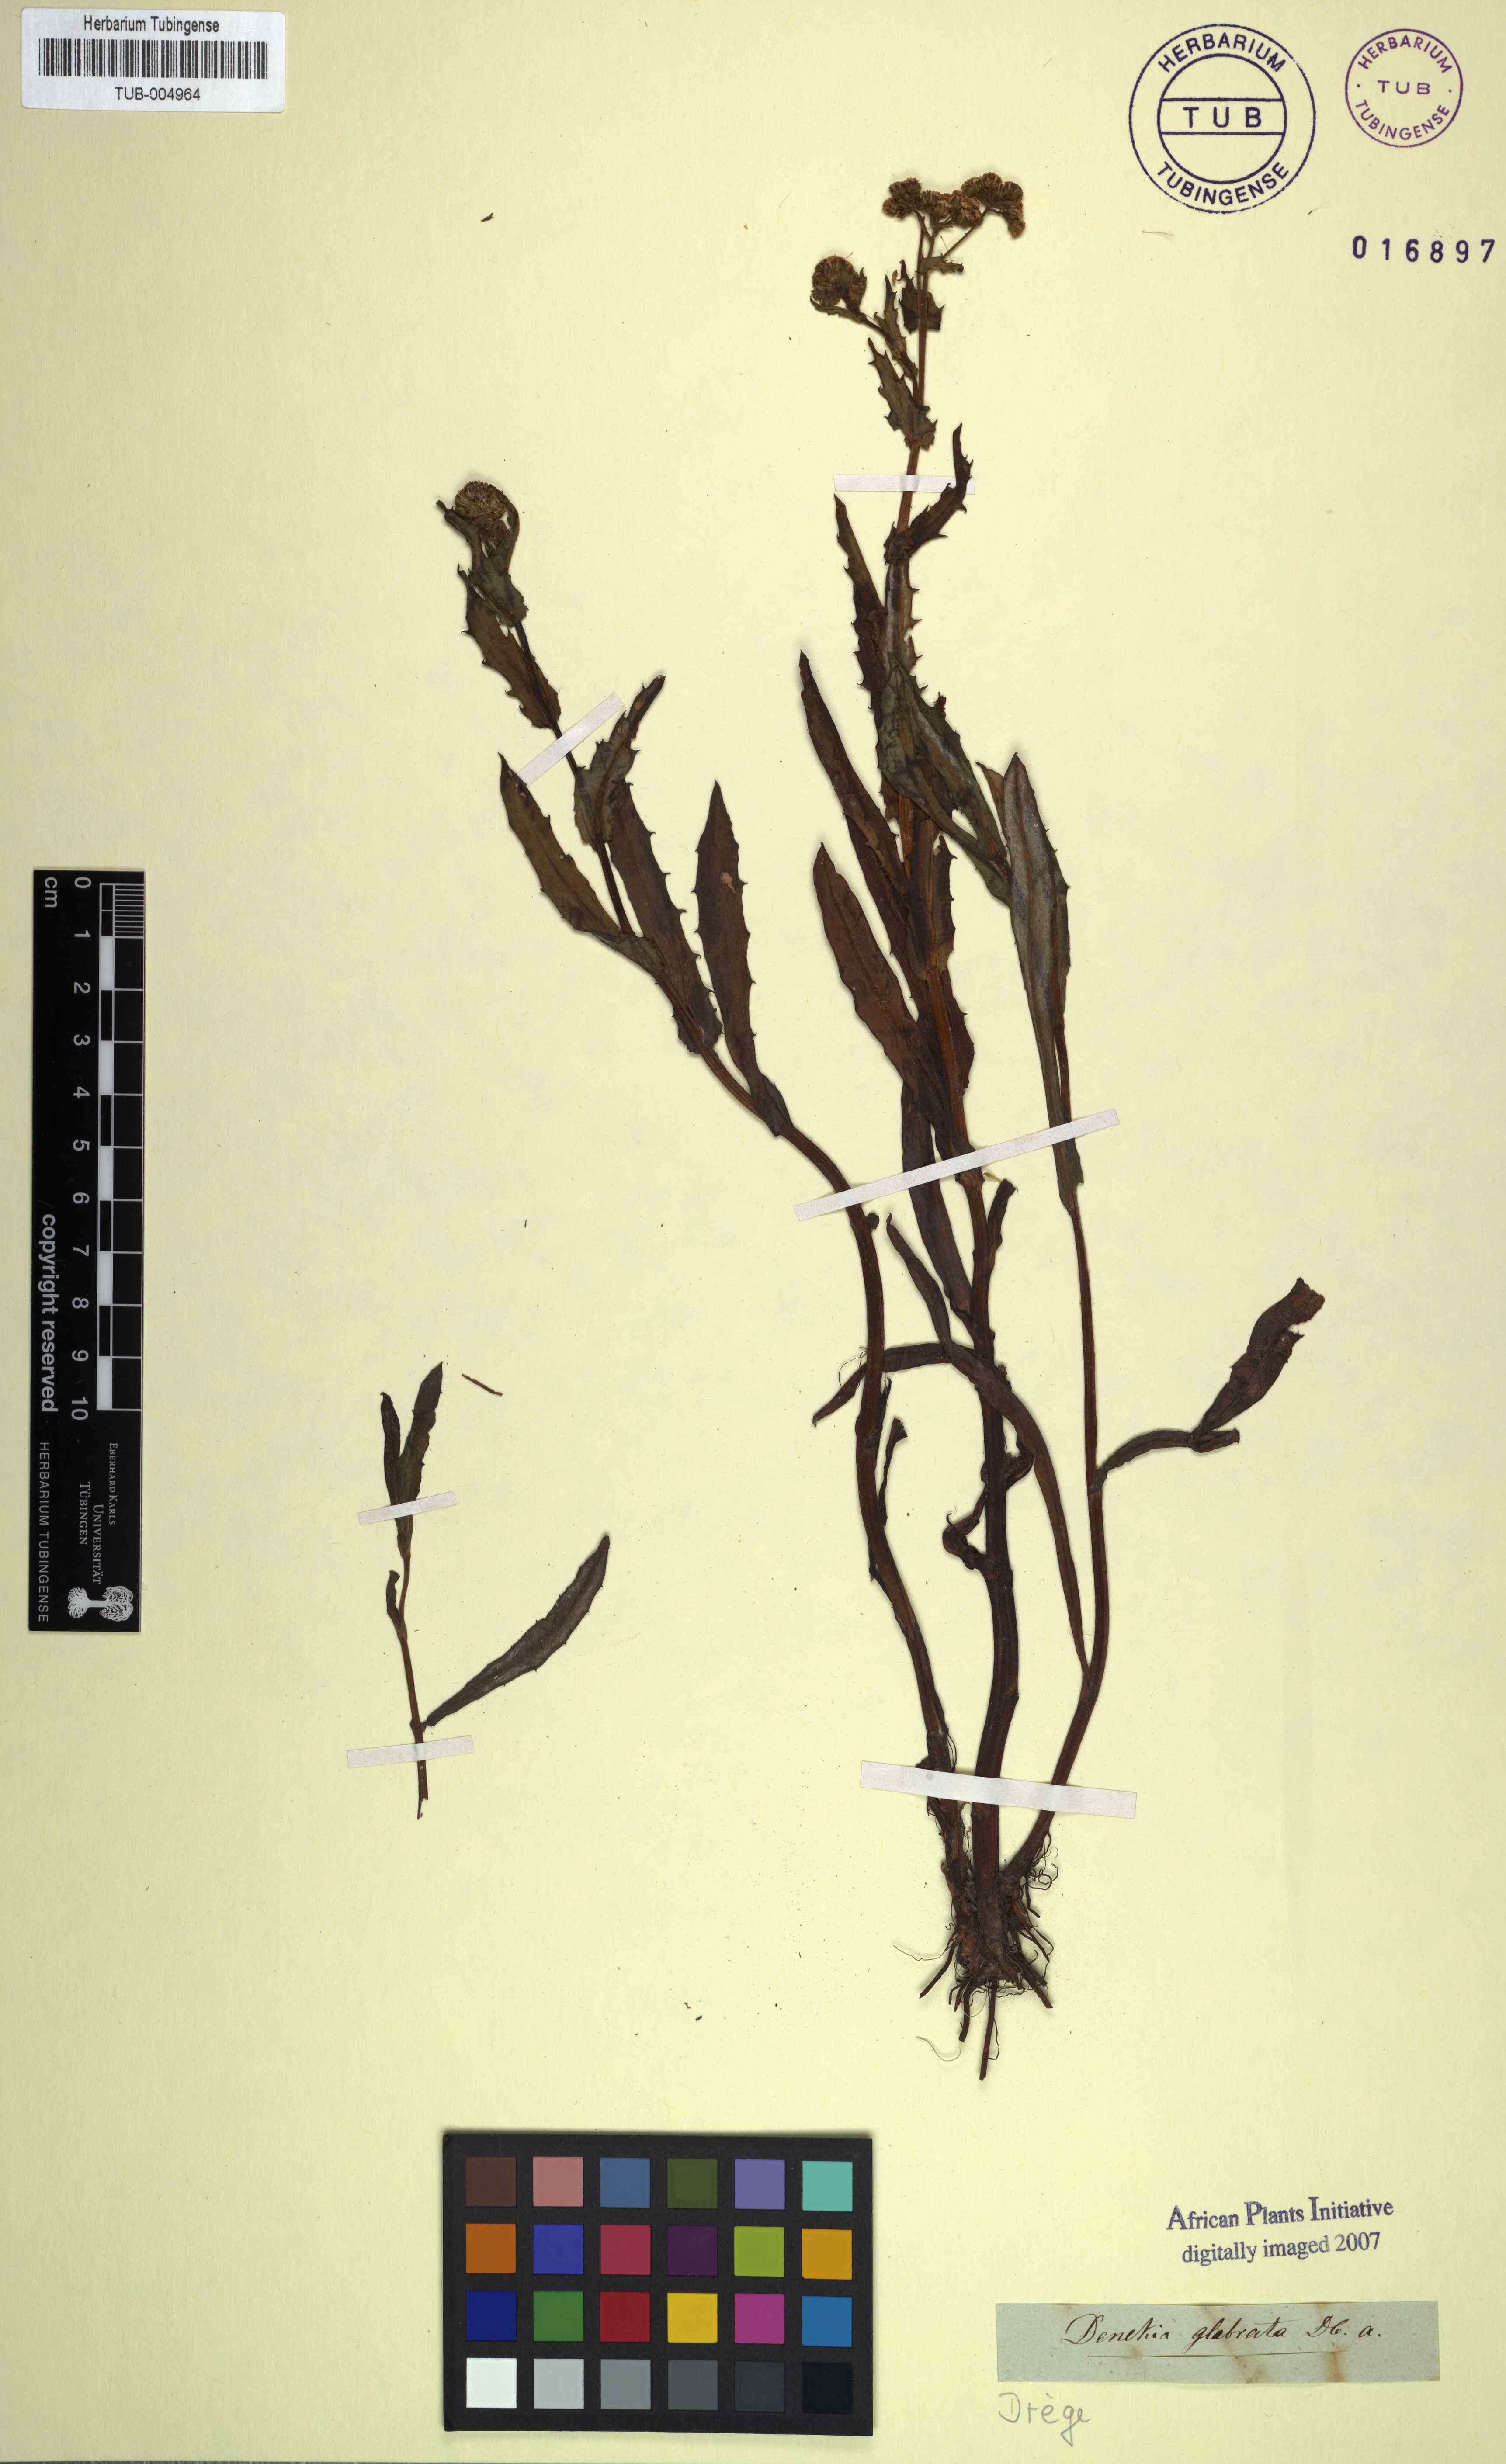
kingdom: Plantae
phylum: Tracheophyta
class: Magnoliopsida
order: Asterales
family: Asteraceae
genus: Denekia
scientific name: Denekia capensis
